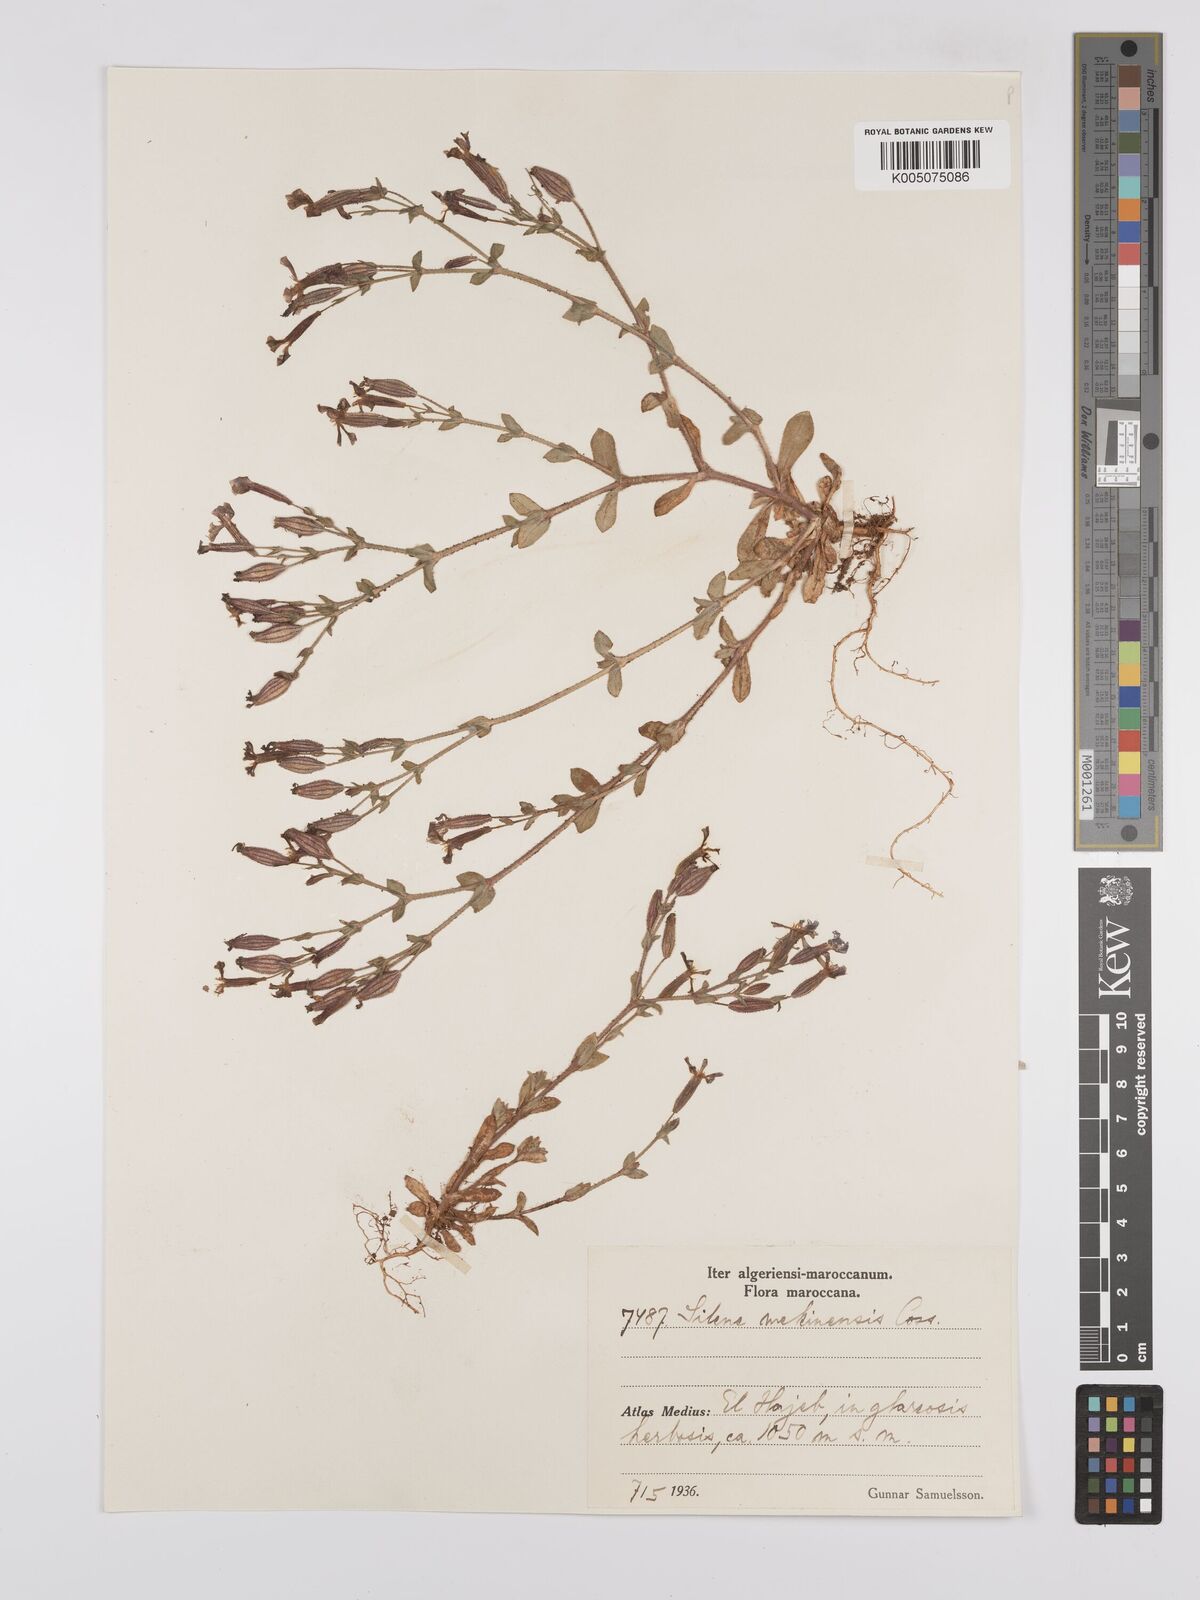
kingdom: Plantae
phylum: Tracheophyta
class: Magnoliopsida
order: Caryophyllales
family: Caryophyllaceae
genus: Silene
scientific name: Silene mekinensis
